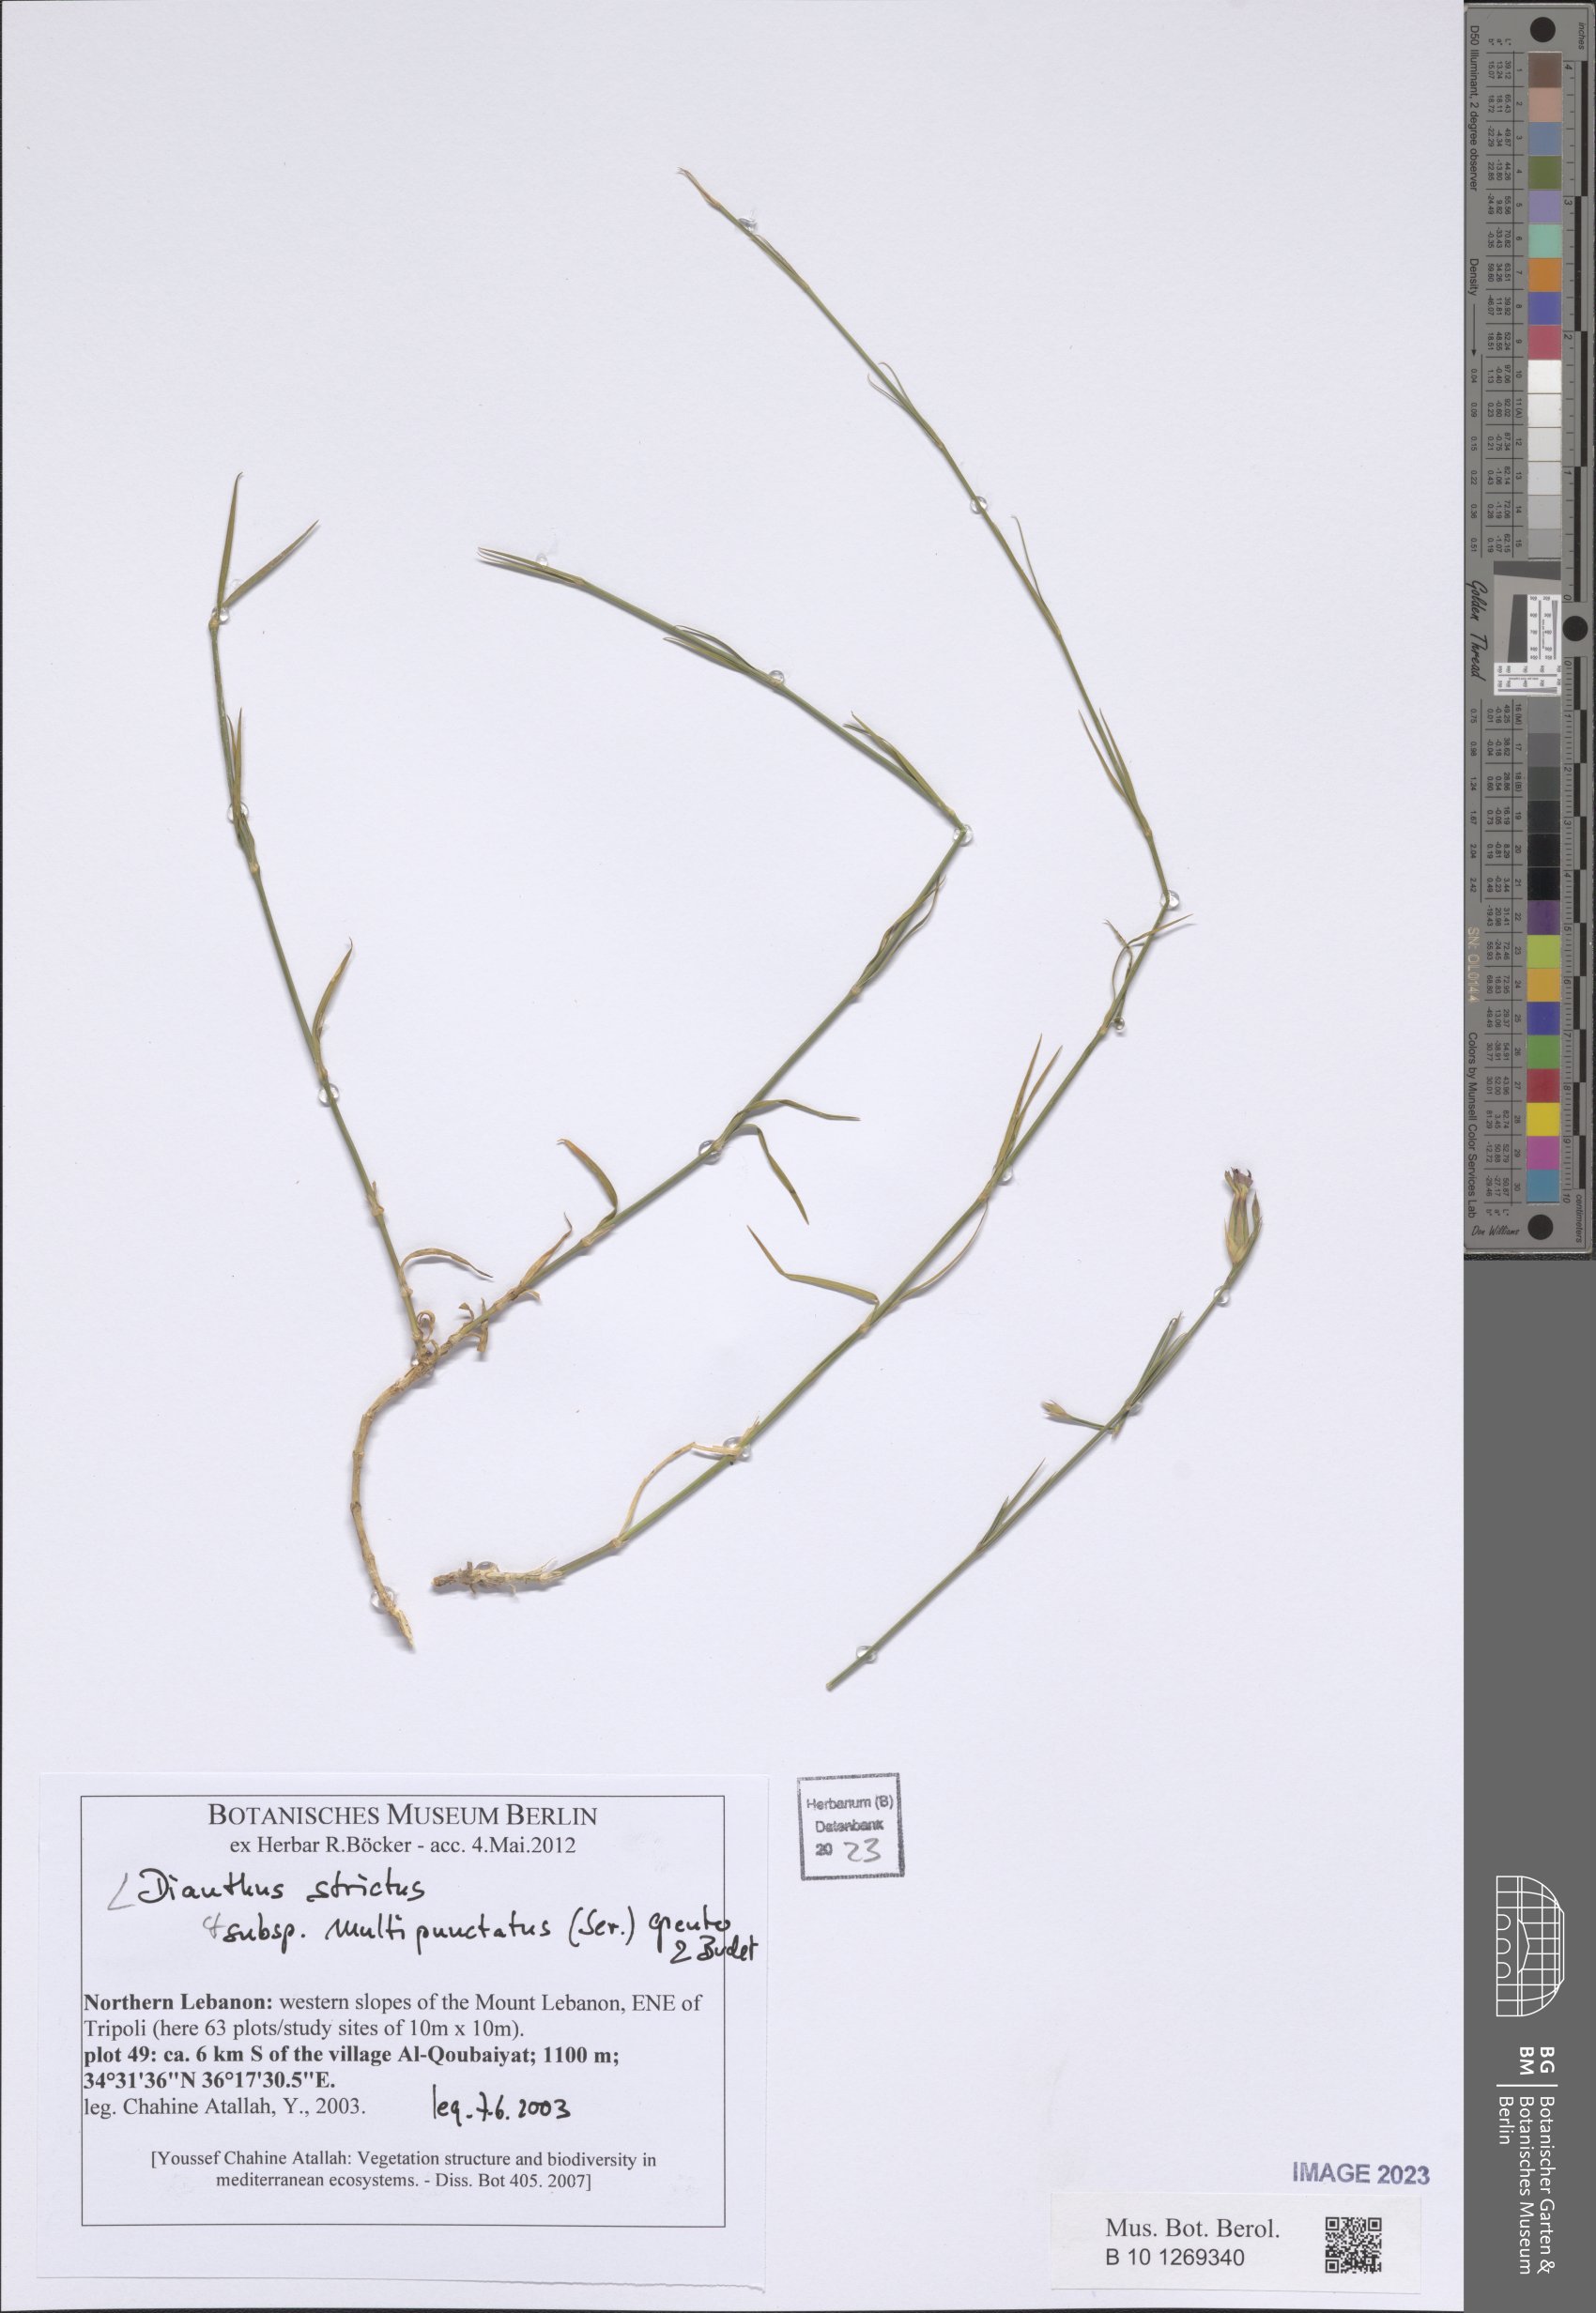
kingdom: Plantae
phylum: Tracheophyta
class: Magnoliopsida
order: Caryophyllales
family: Caryophyllaceae
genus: Dianthus
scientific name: Dianthus strictus
